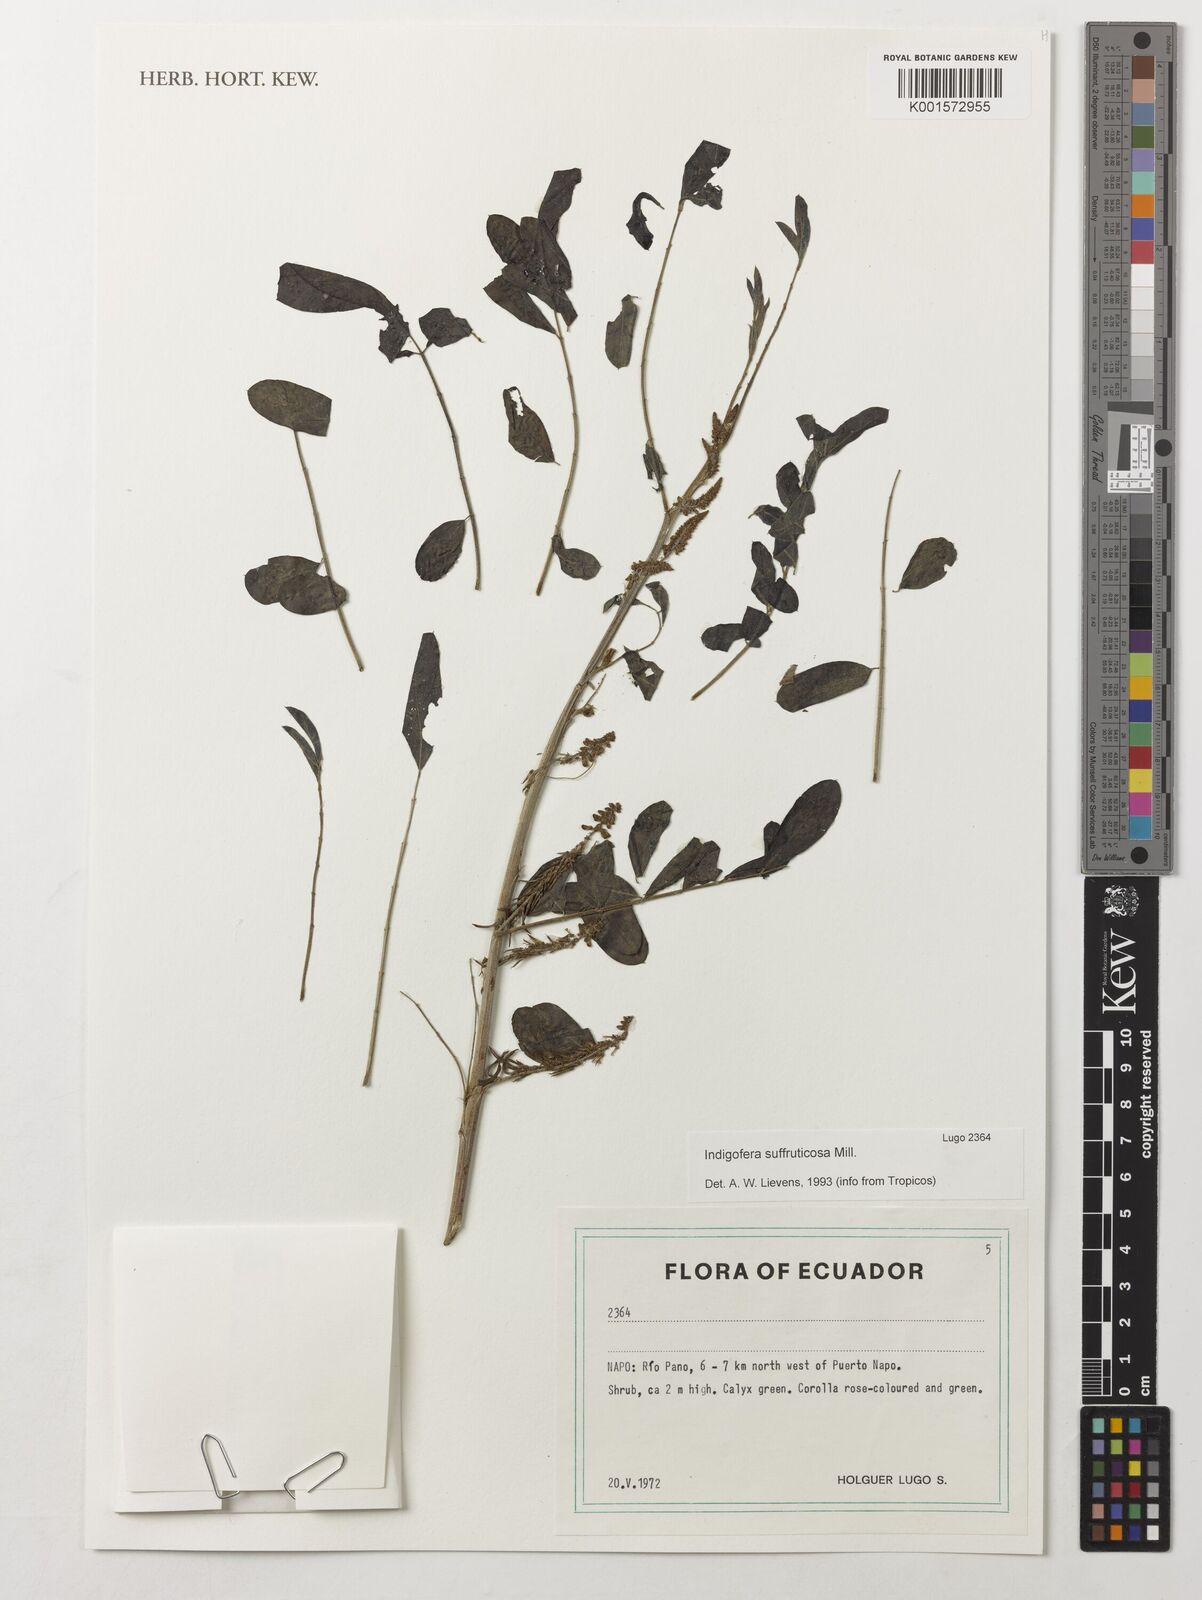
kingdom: Plantae
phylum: Tracheophyta
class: Magnoliopsida
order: Fabales
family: Fabaceae
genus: Indigofera
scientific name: Indigofera suffruticosa
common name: Anil de pasto
